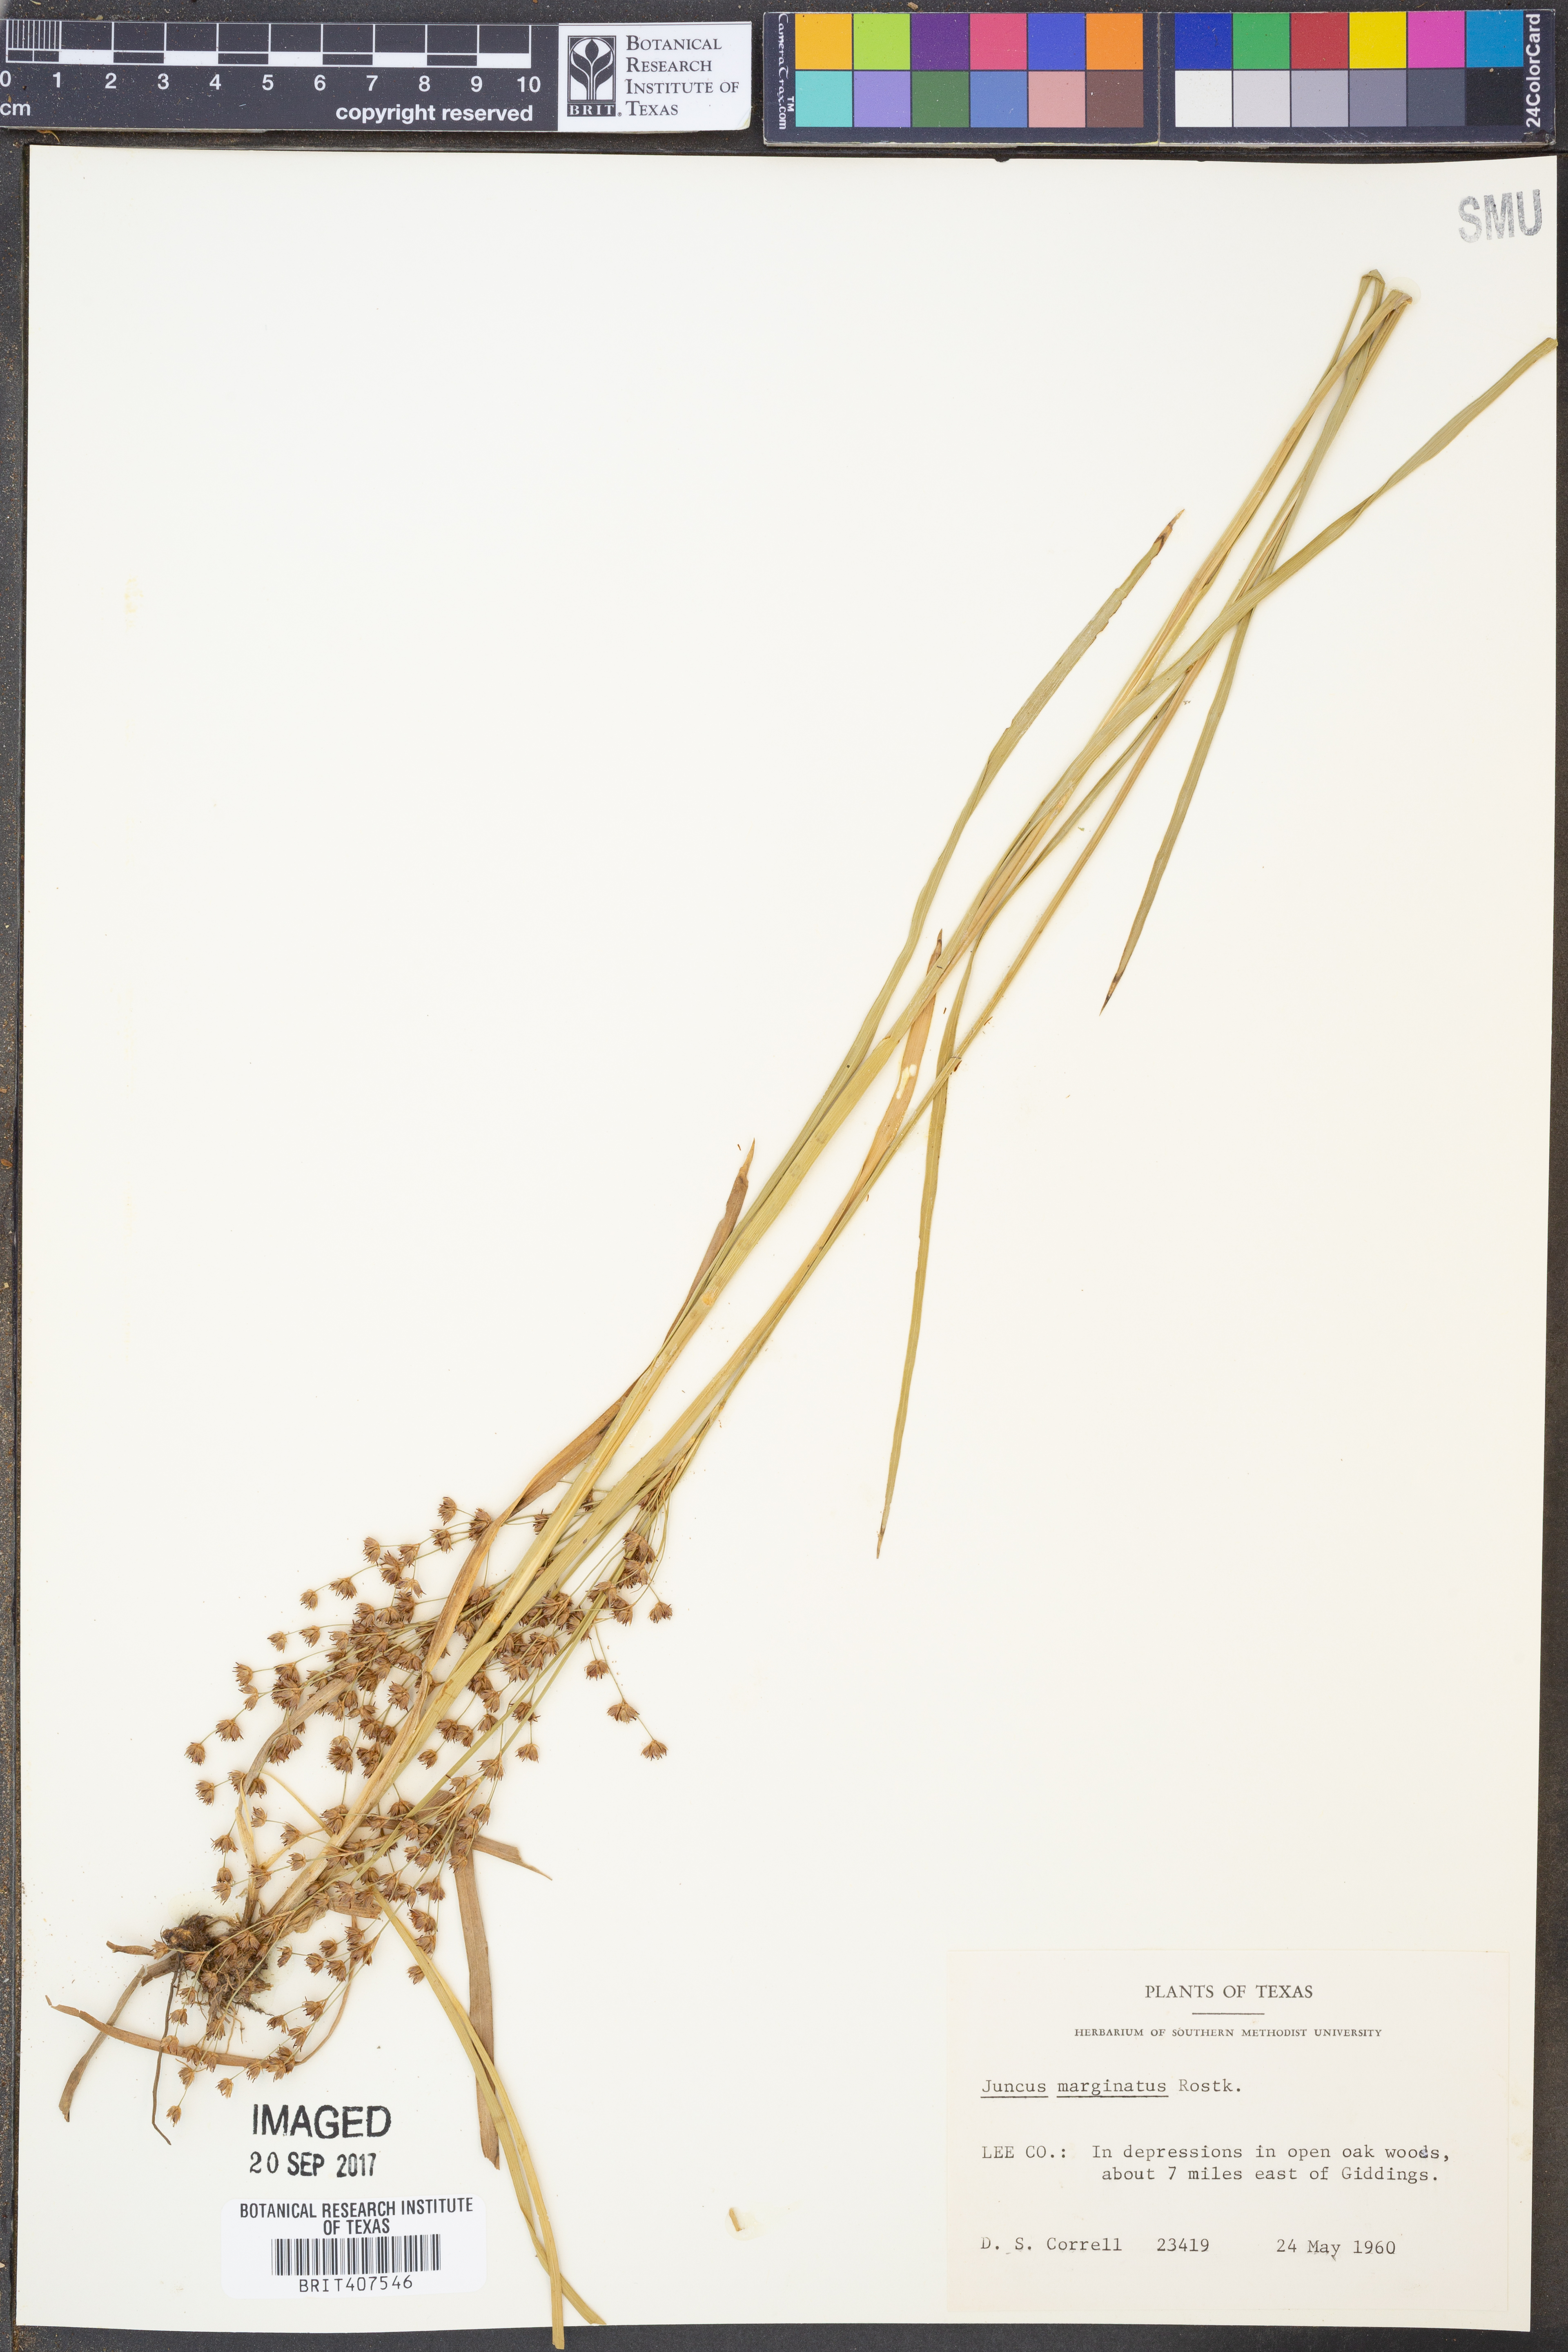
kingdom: Plantae
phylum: Tracheophyta
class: Liliopsida
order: Poales
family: Juncaceae
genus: Juncus
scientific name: Juncus marginatus
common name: Grass-leaf rush
